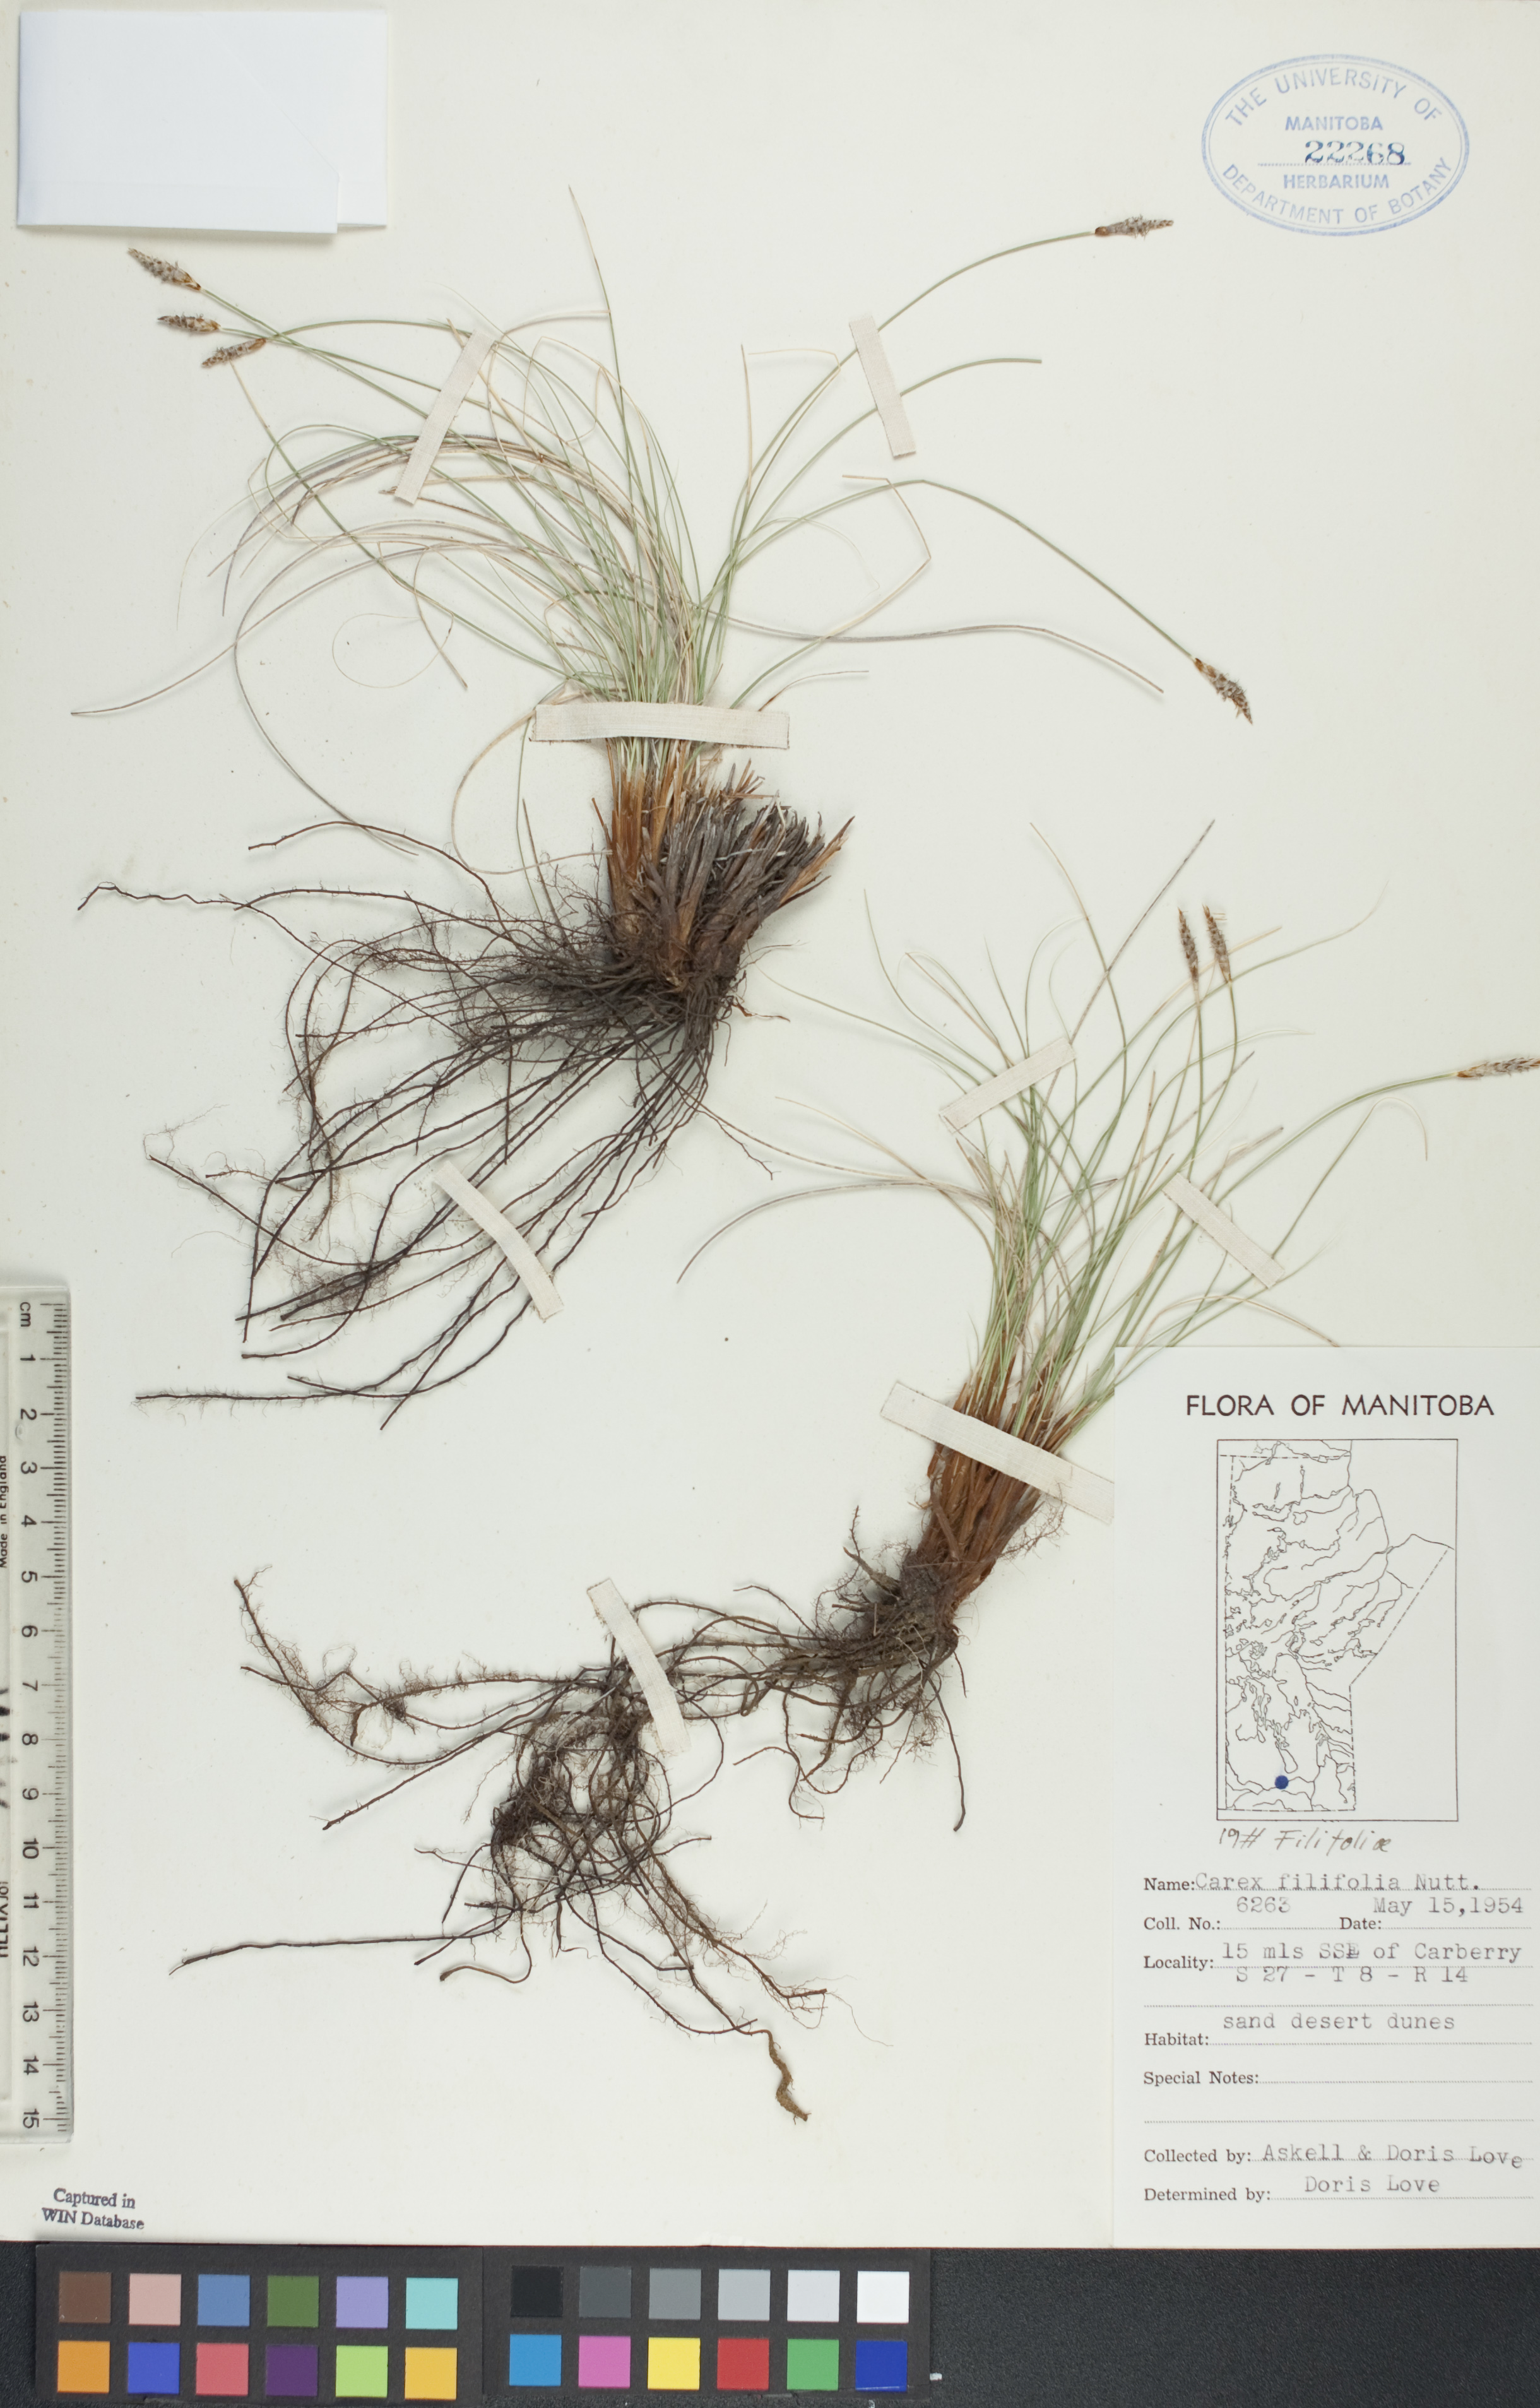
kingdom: Plantae
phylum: Tracheophyta
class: Liliopsida
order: Poales
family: Cyperaceae
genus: Carex
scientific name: Carex filifolia
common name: Threadleaf sedge
